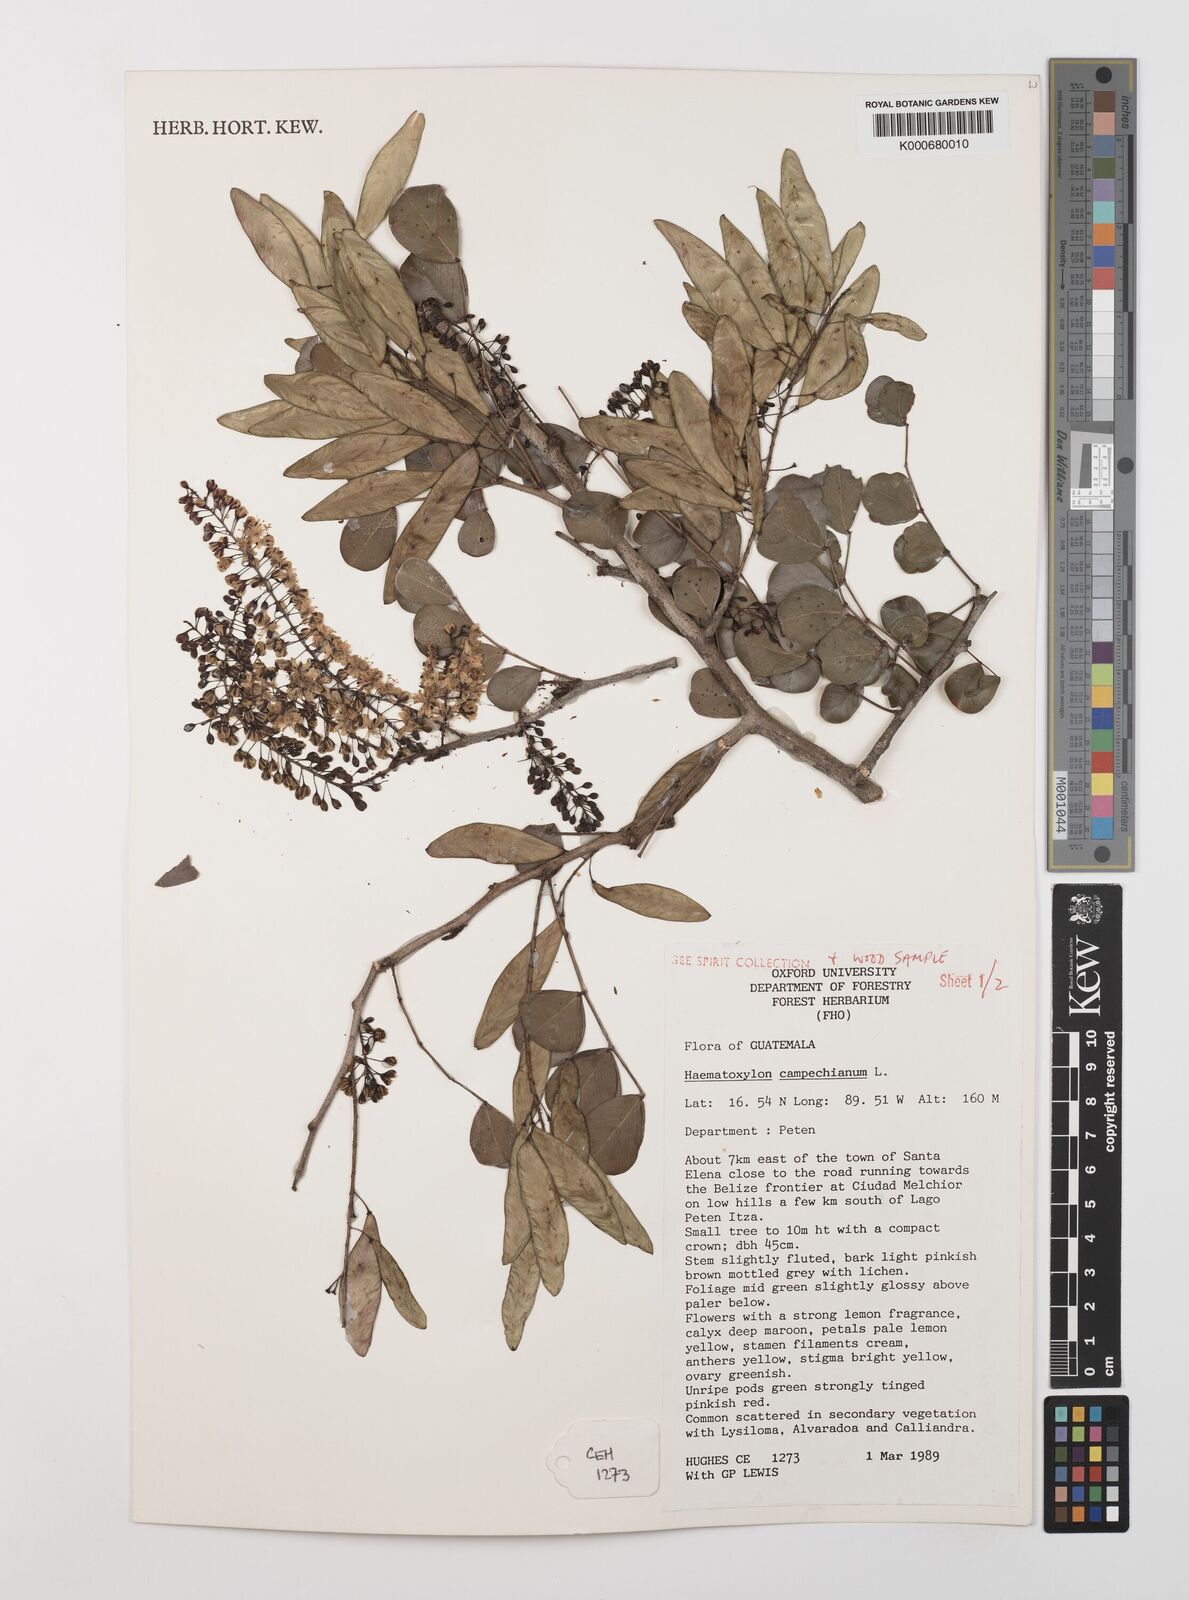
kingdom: Plantae
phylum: Tracheophyta
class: Magnoliopsida
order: Fabales
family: Fabaceae
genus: Haematoxylum
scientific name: Haematoxylum
